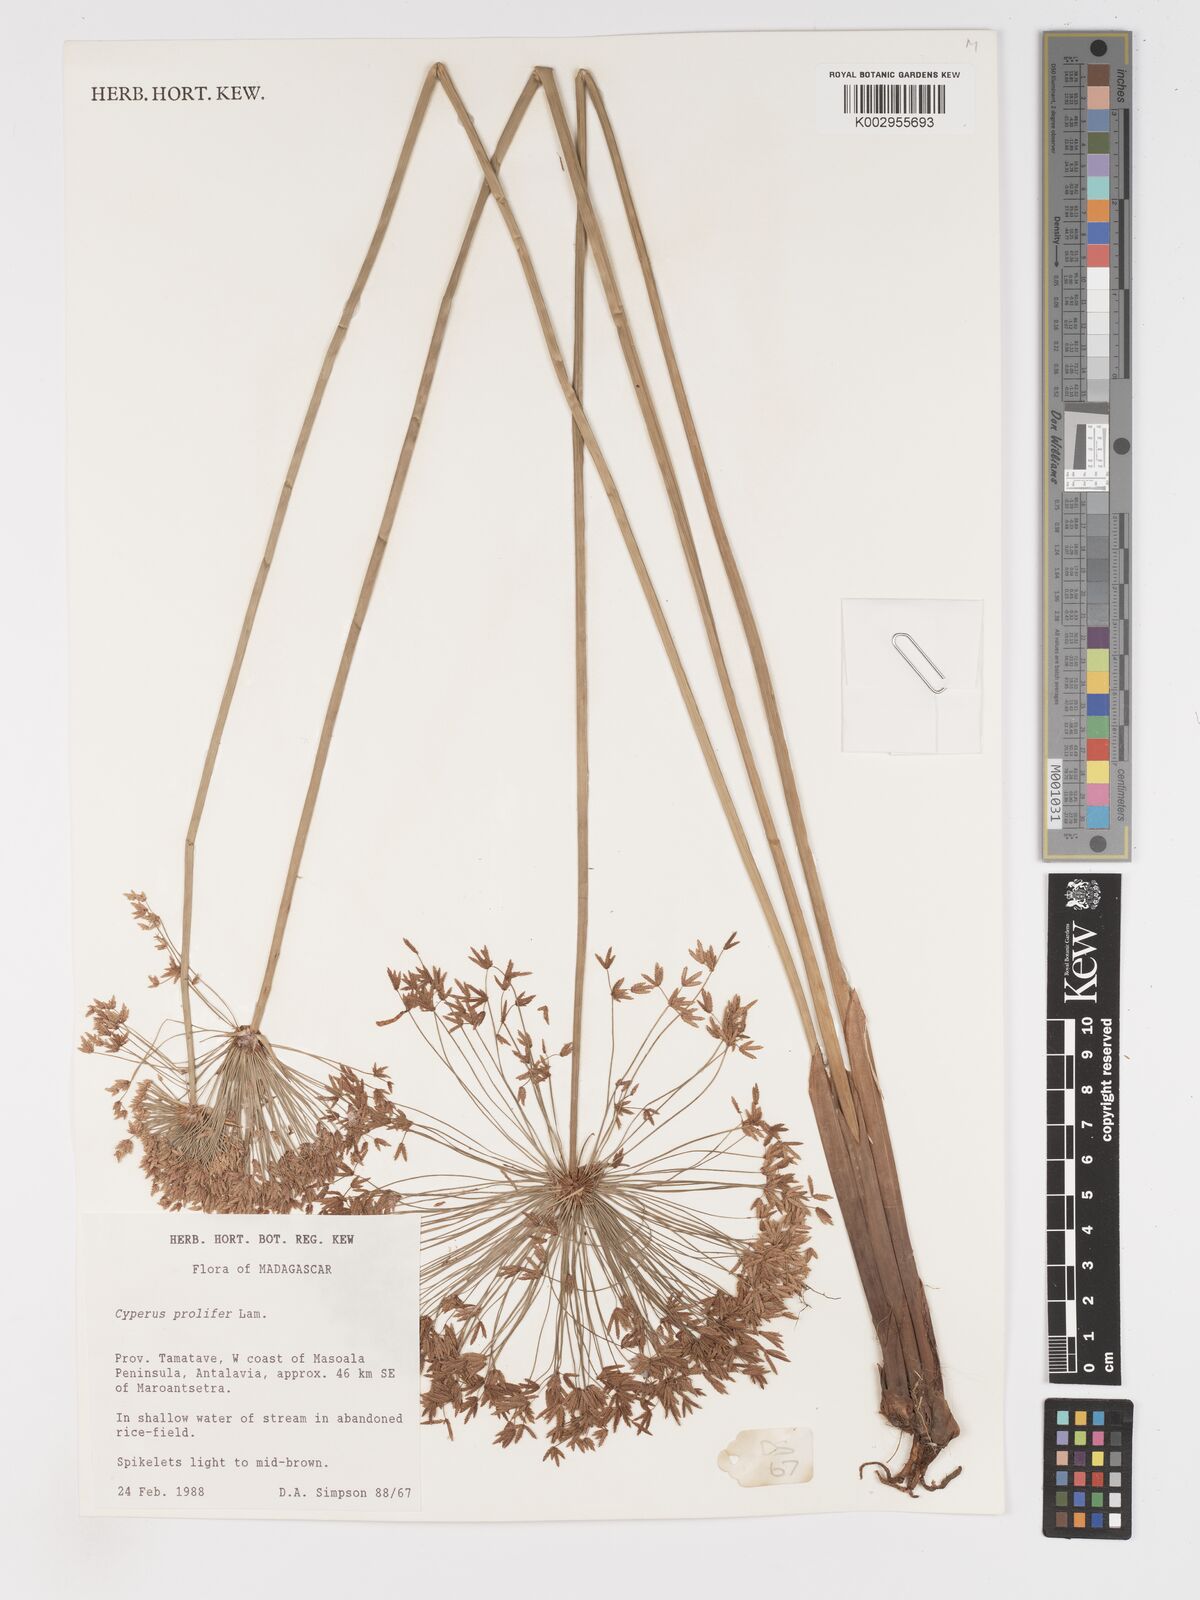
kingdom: Plantae
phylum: Tracheophyta
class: Liliopsida
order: Poales
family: Cyperaceae
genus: Cyperus
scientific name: Cyperus prolifer
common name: Miniature flatsedge
